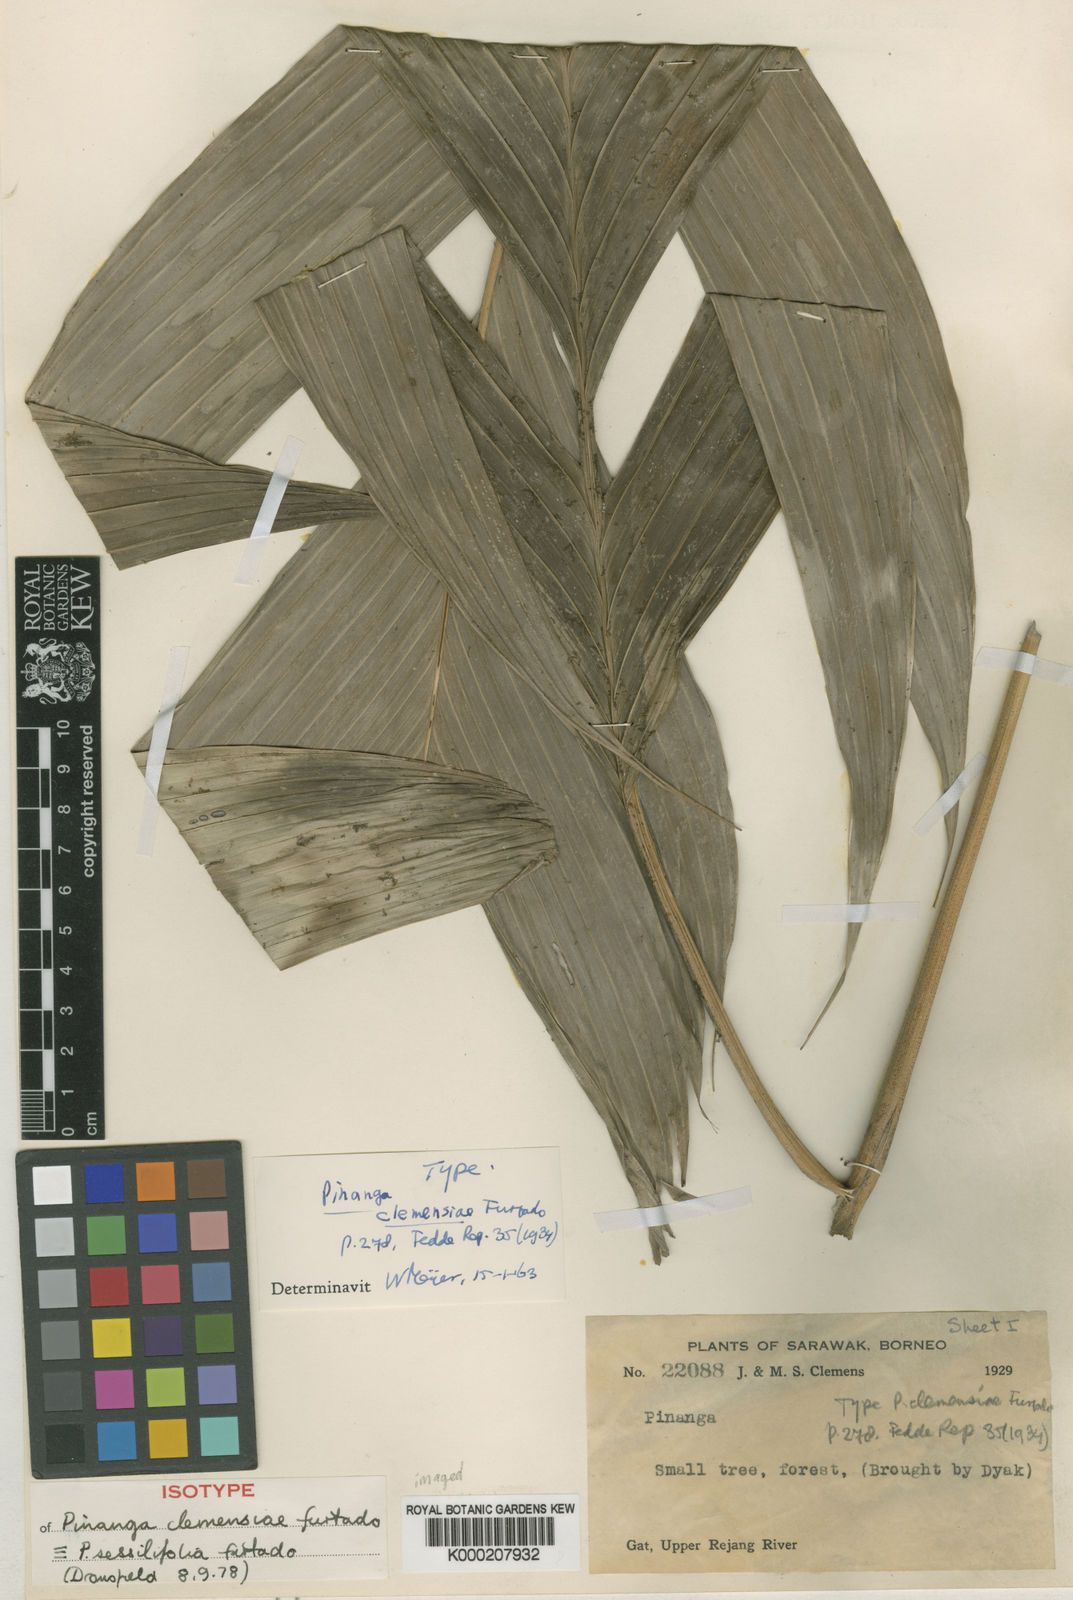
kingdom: Plantae
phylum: Tracheophyta
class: Liliopsida
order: Arecales
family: Arecaceae
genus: Pinanga
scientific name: Pinanga sessilifolia
